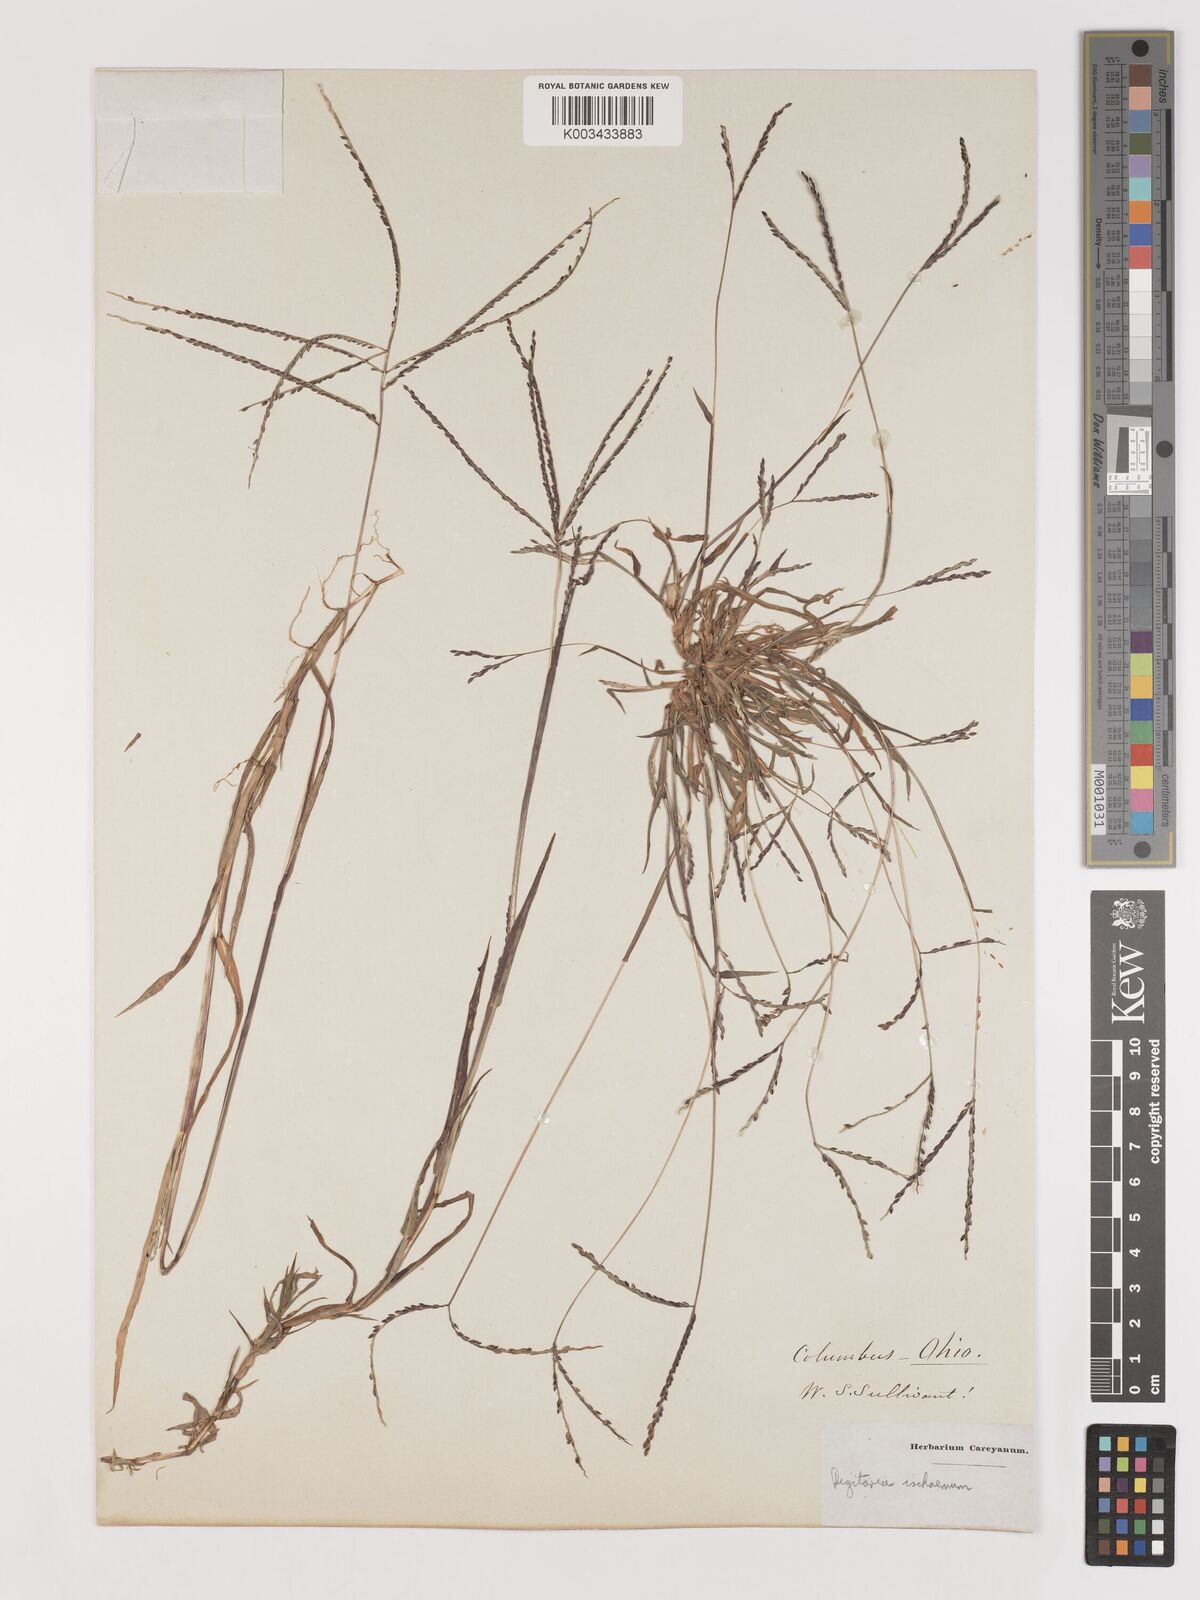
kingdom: Plantae
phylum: Tracheophyta
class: Liliopsida
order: Poales
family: Poaceae
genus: Digitaria
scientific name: Digitaria ischaemum
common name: Smooth crabgrass
